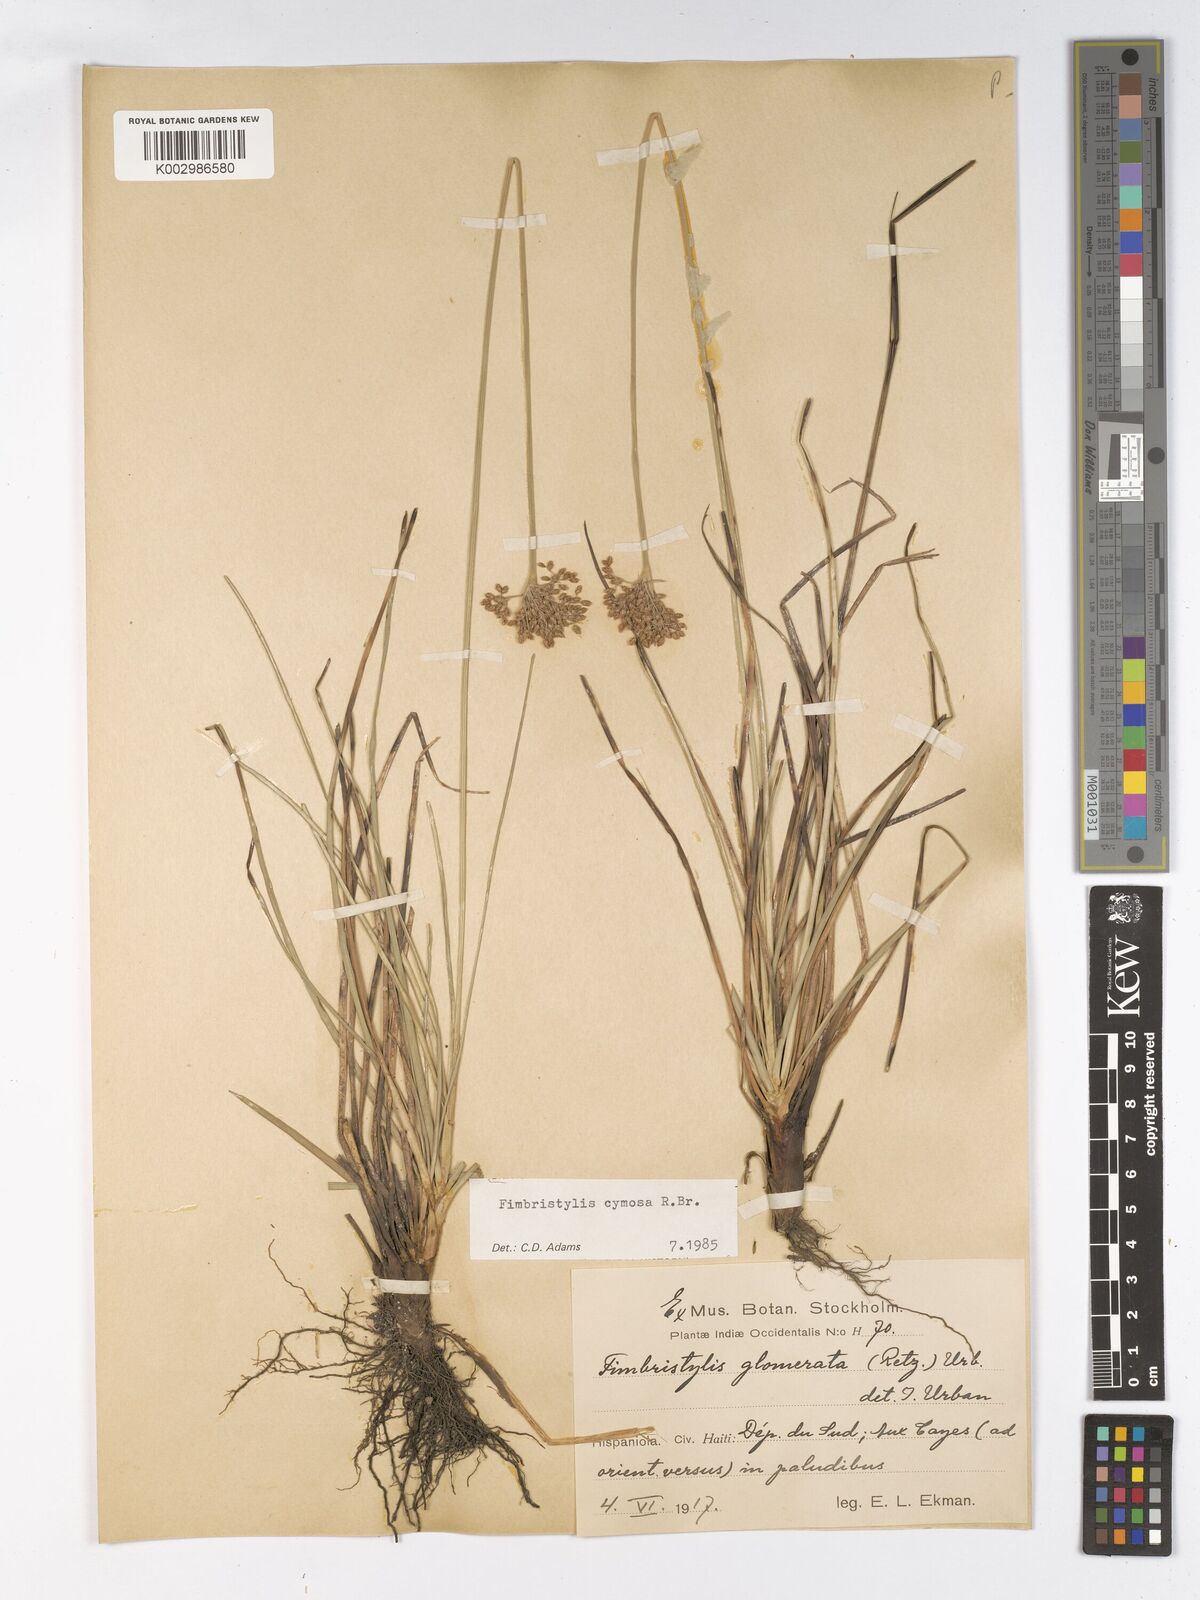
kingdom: Plantae
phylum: Tracheophyta
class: Liliopsida
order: Poales
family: Cyperaceae
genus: Fimbristylis
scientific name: Fimbristylis
